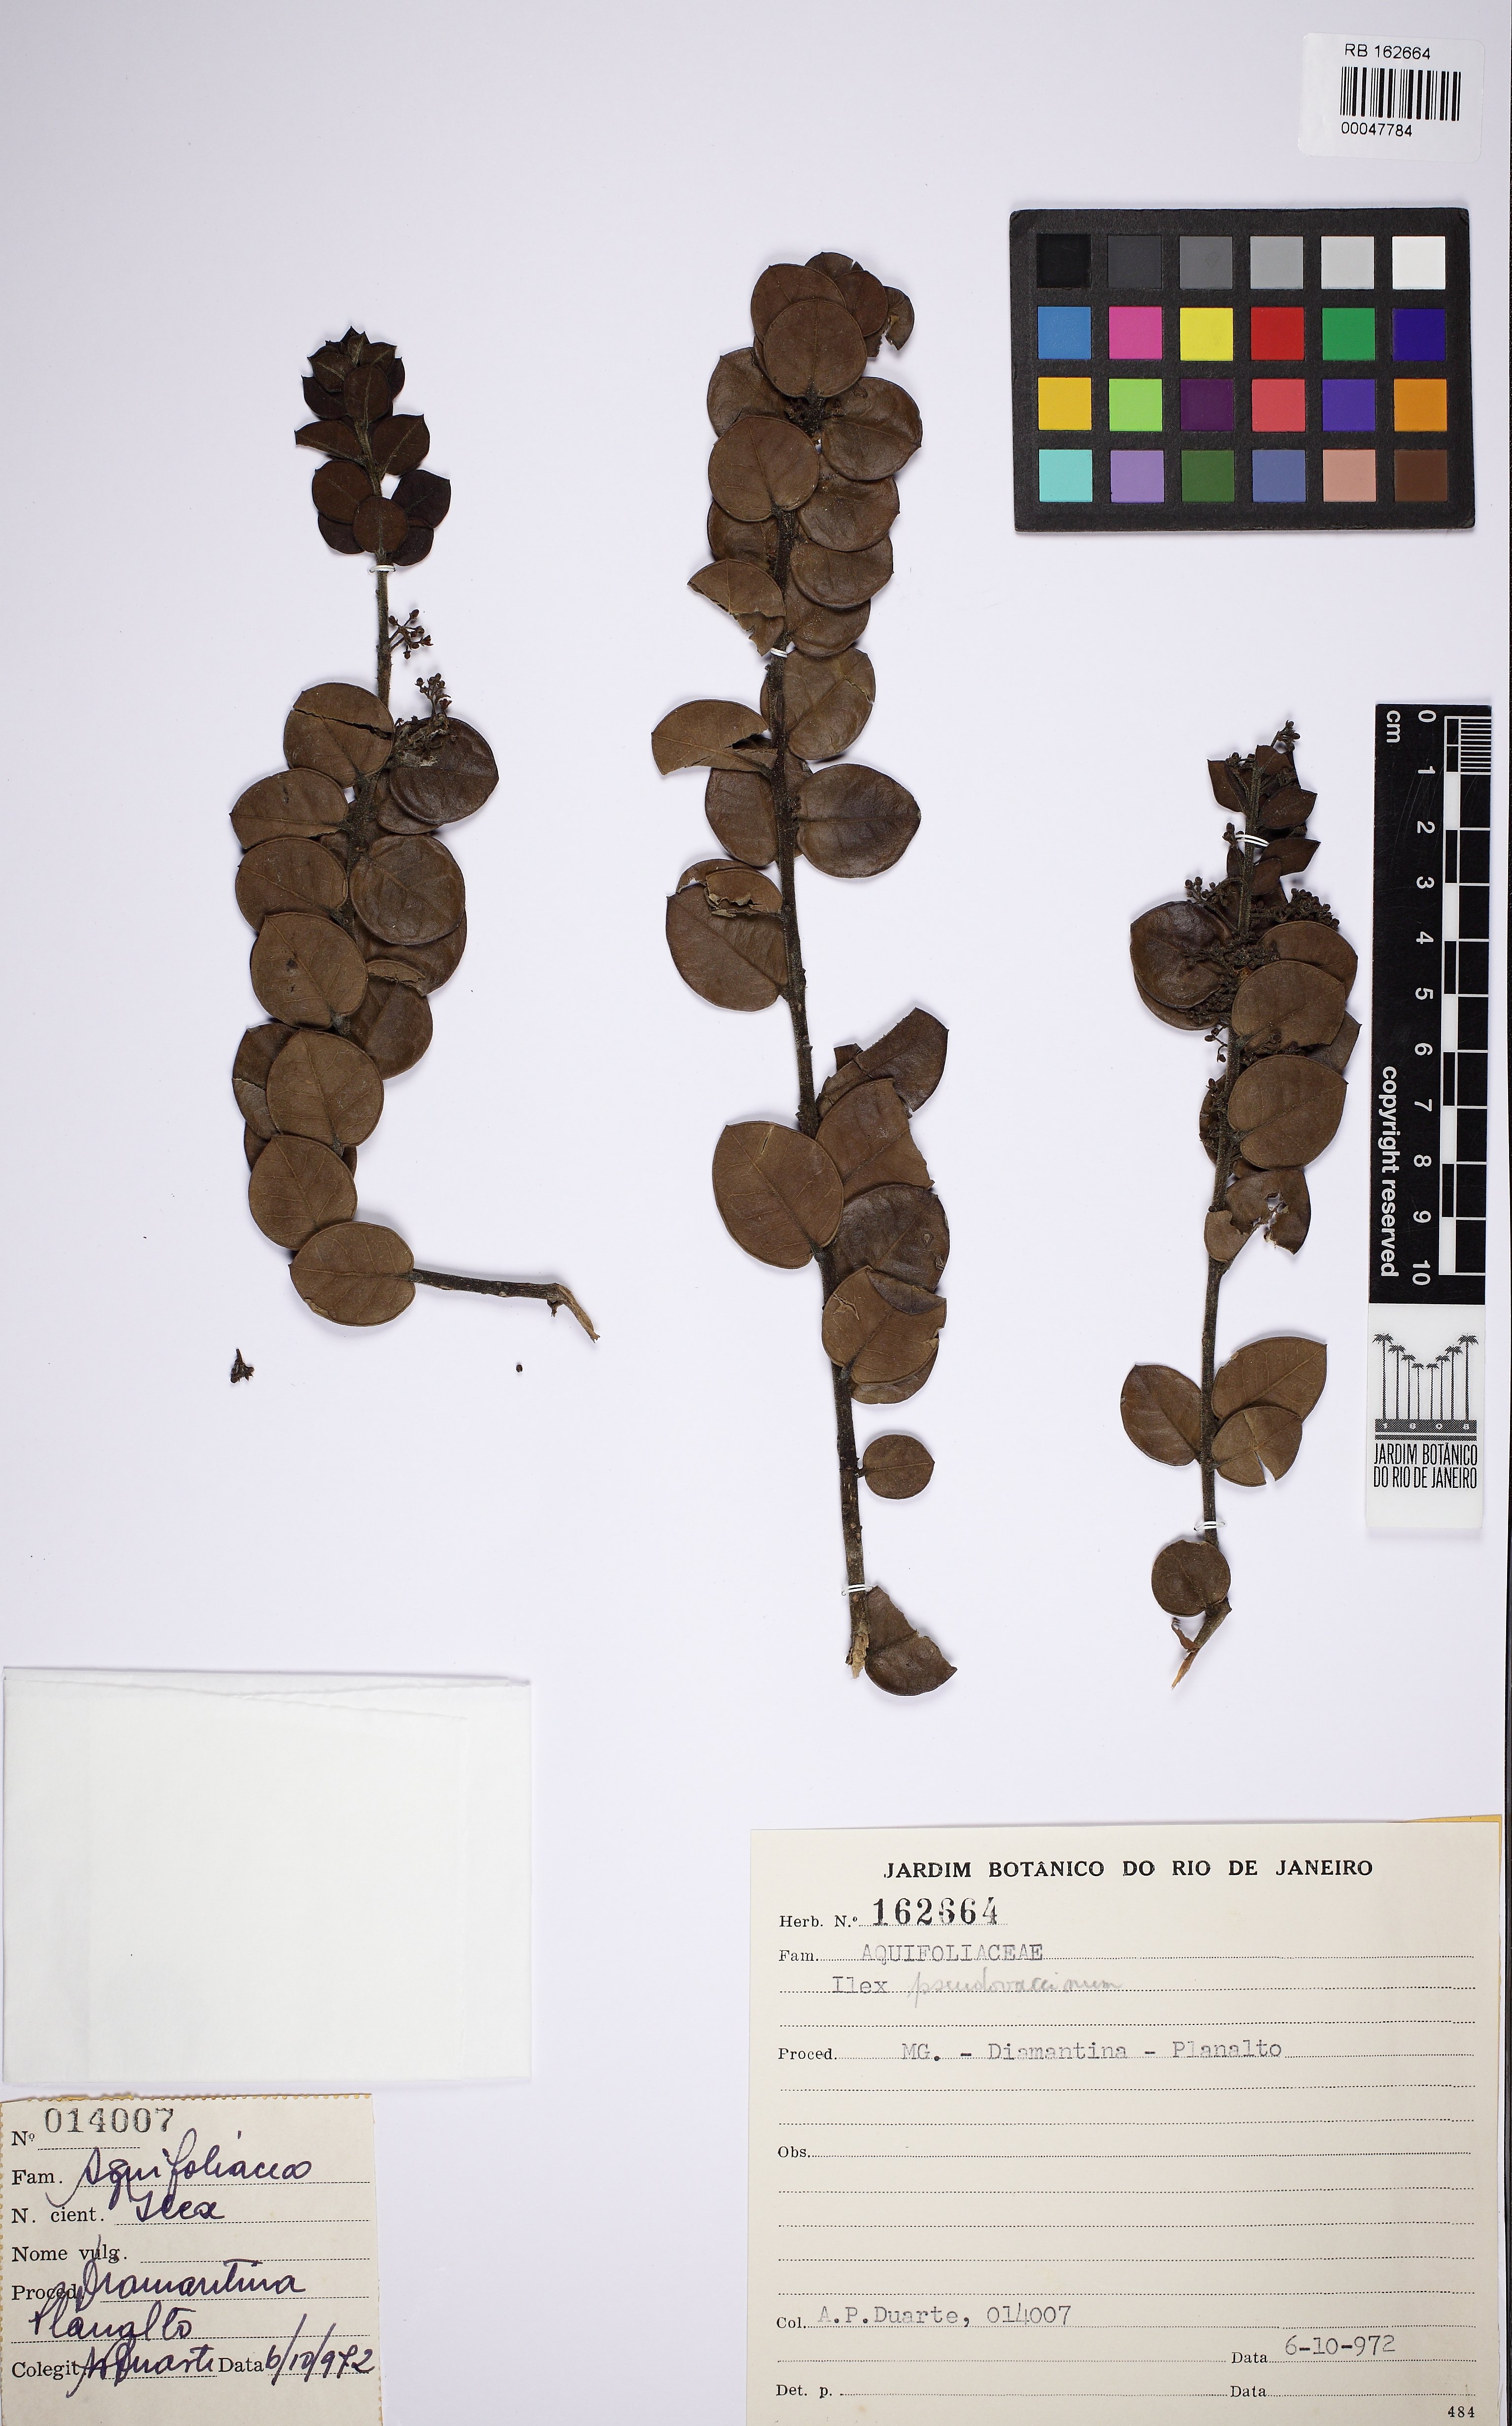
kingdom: Plantae
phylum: Tracheophyta
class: Magnoliopsida
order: Aquifoliales
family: Aquifoliaceae
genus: Ilex
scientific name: Ilex pseudovaccinium
